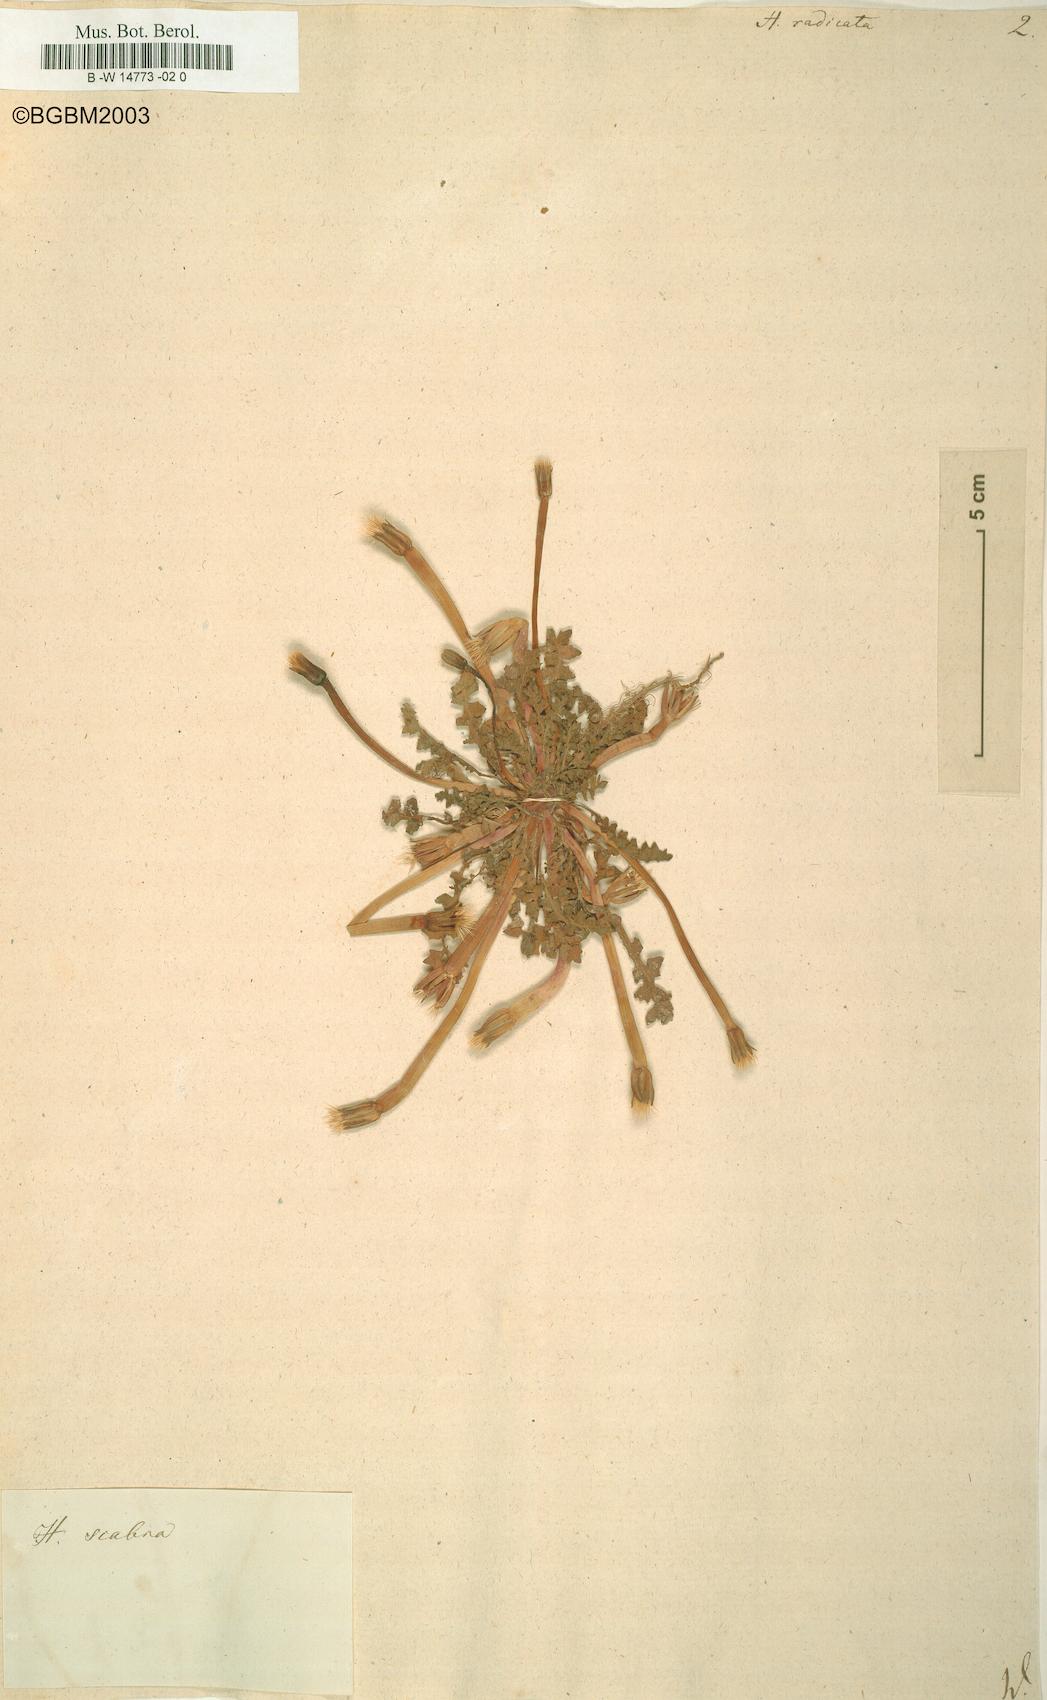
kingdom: Plantae
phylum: Tracheophyta
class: Magnoliopsida
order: Asterales
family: Asteraceae
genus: Hyoseris
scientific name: Hyoseris radiata
